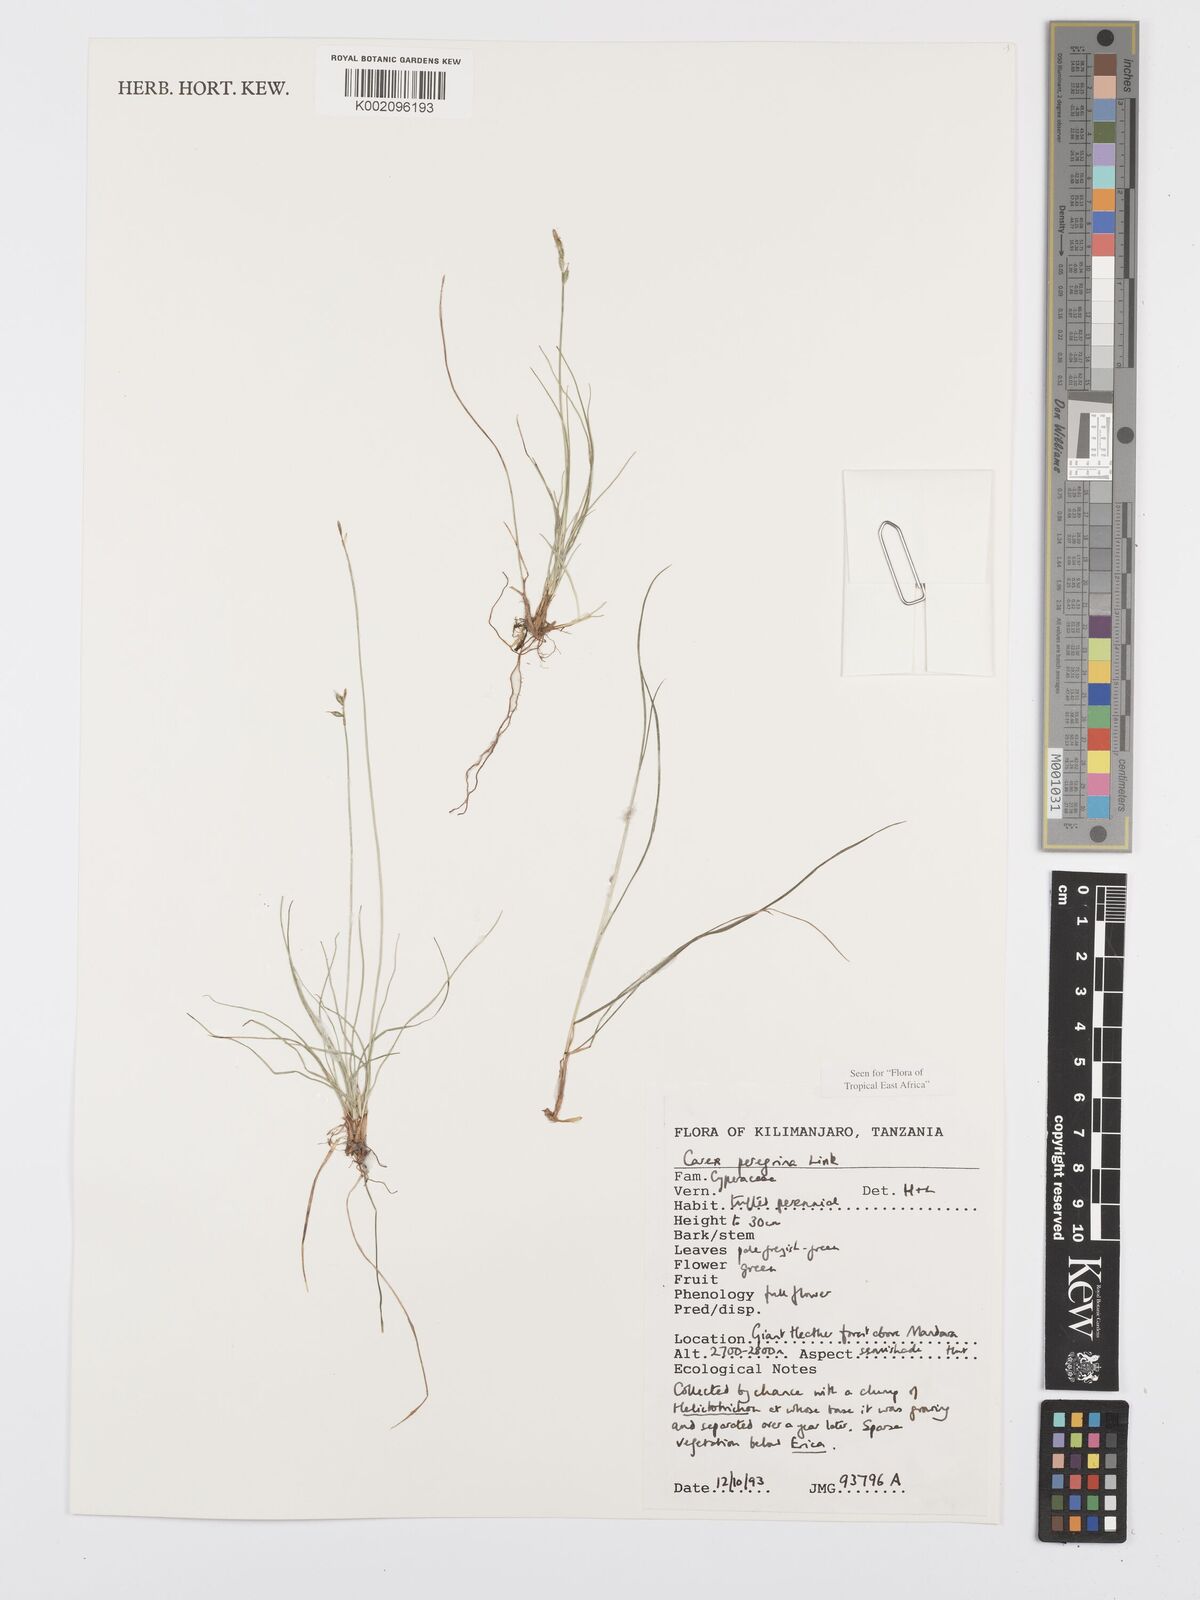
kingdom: Plantae
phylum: Tracheophyta
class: Liliopsida
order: Poales
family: Cyperaceae
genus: Carex
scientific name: Carex peregrina
